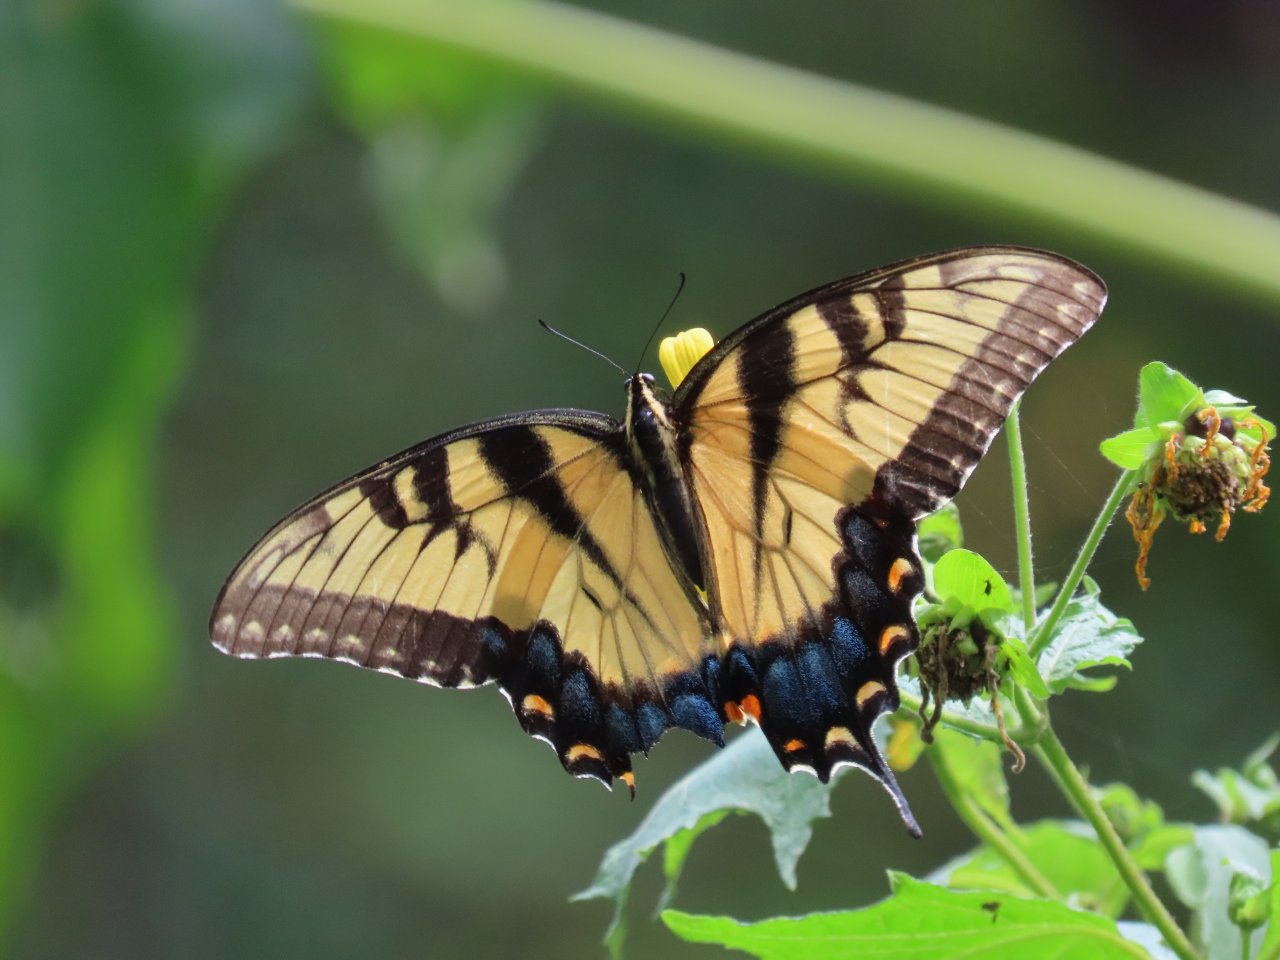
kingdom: Animalia
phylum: Arthropoda
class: Insecta
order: Lepidoptera
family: Papilionidae
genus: Pterourus
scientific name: Pterourus glaucus
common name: Eastern Tiger Swallowtail
